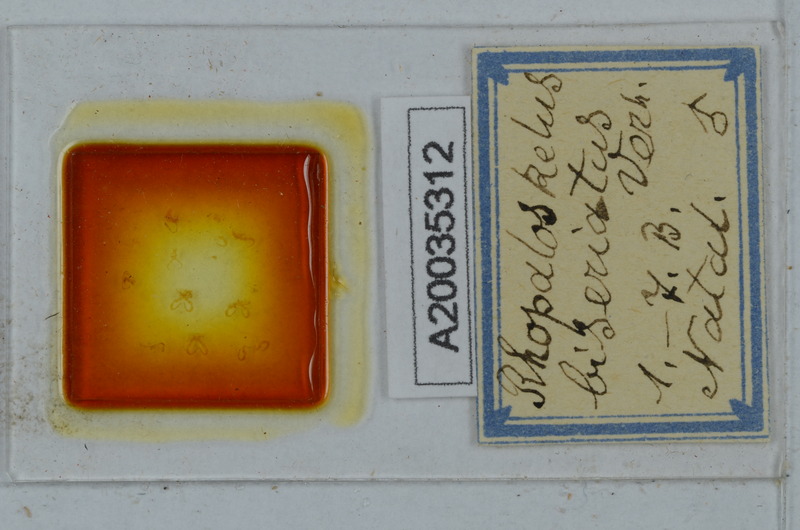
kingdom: Animalia
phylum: Arthropoda
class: Diplopoda
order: Polydesmida
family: Dalodesmidae
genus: Rhopaloskelus
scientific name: Rhopaloskelus biseriatus
